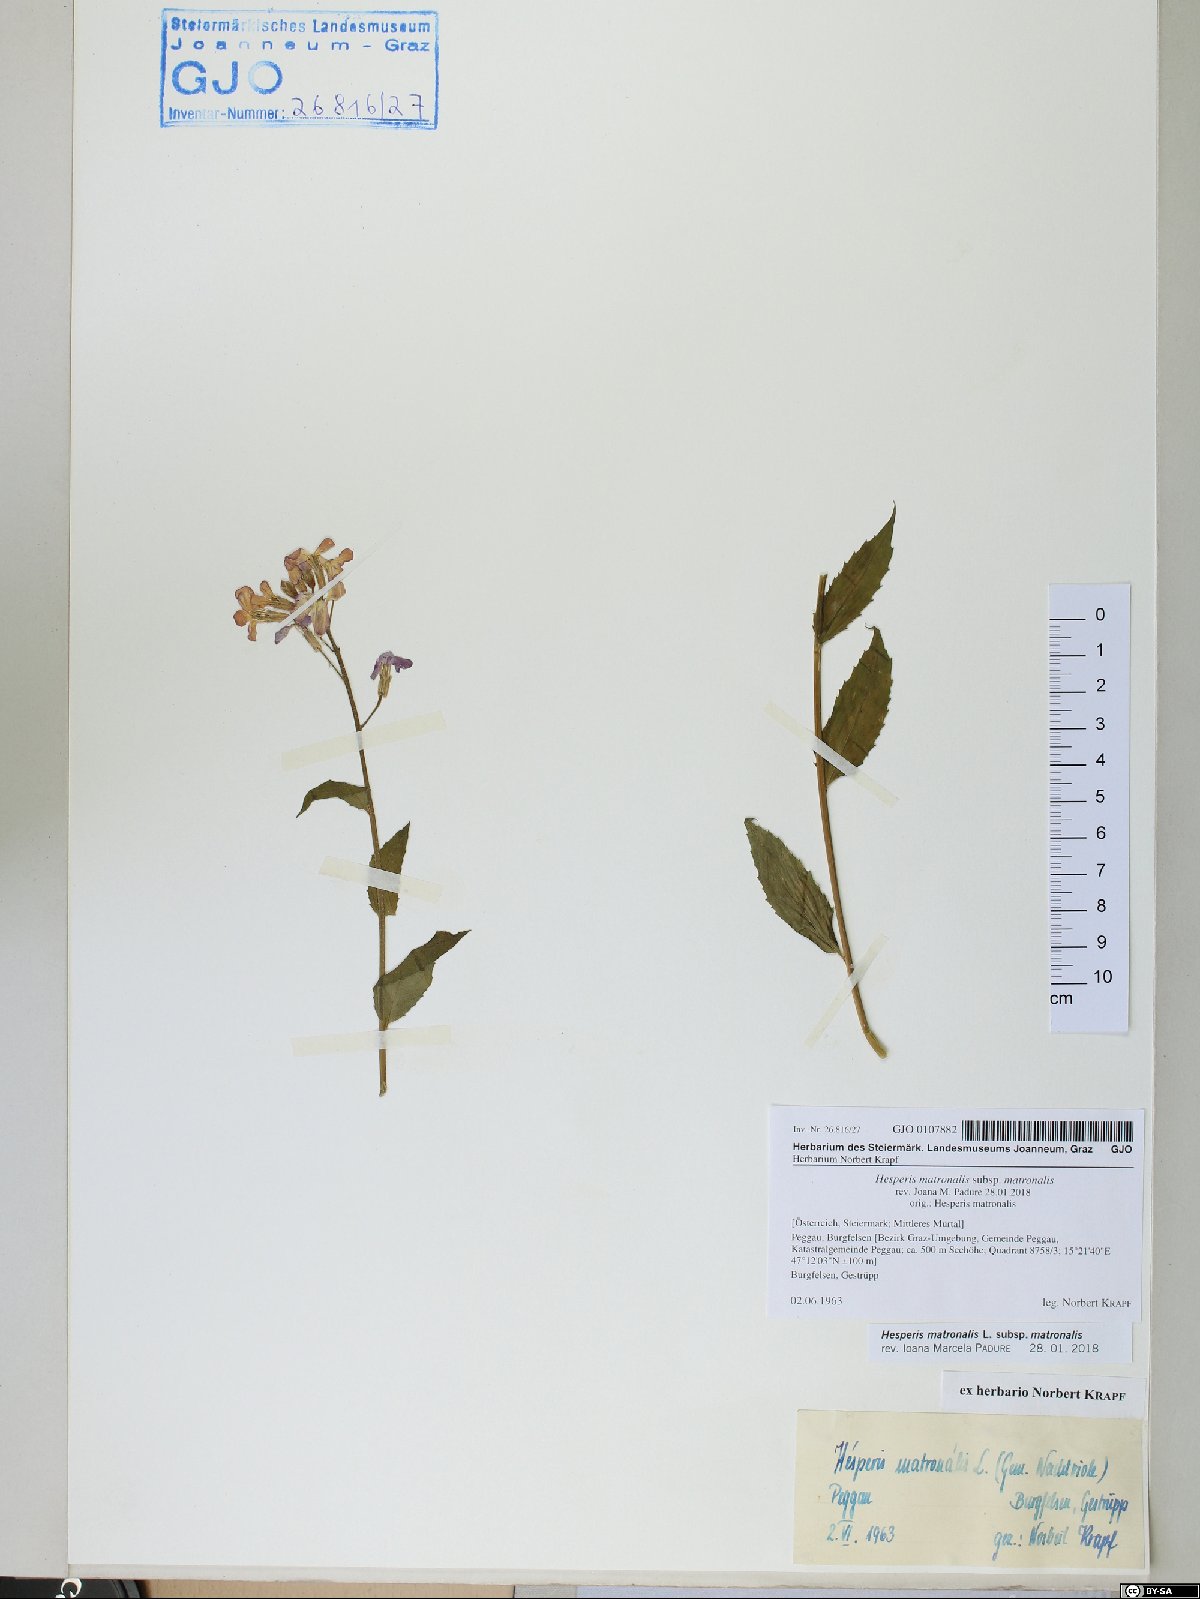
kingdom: Plantae
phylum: Tracheophyta
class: Magnoliopsida
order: Brassicales
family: Brassicaceae
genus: Hesperis
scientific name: Hesperis matronalis
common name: Dame's-violet
